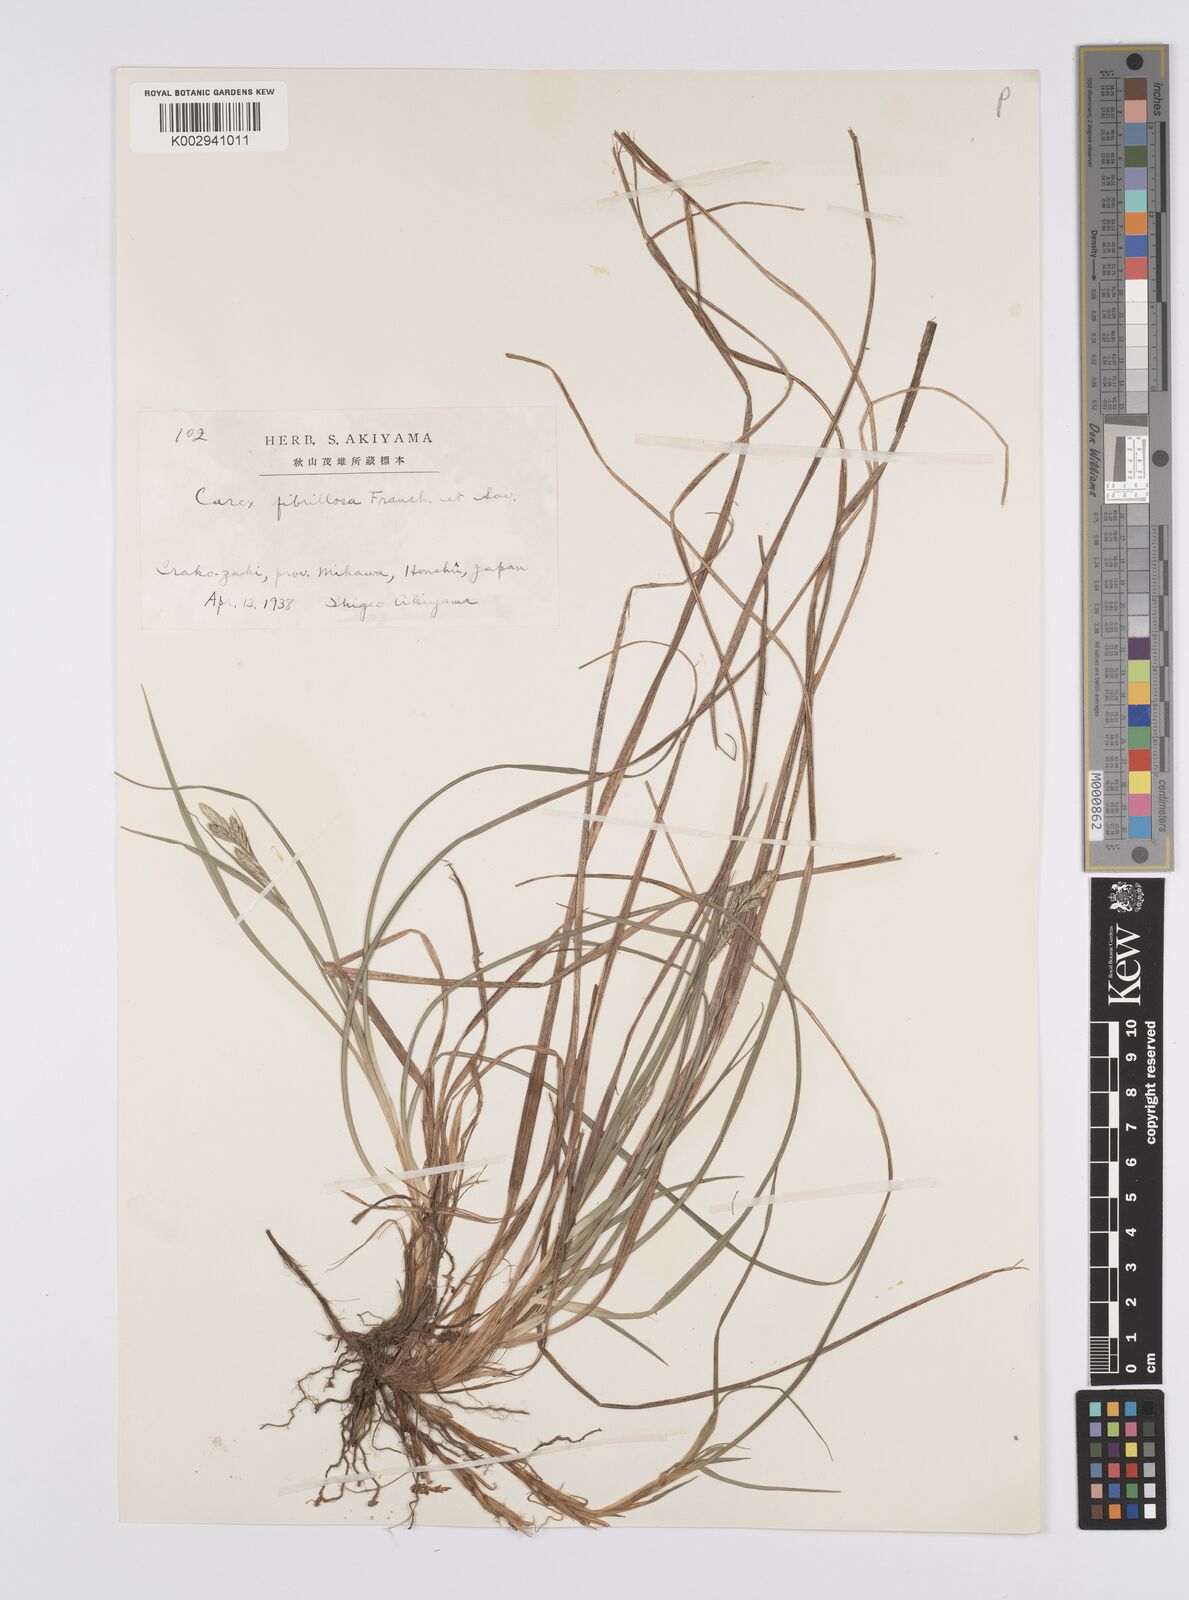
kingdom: Plantae
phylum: Tracheophyta
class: Liliopsida
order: Poales
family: Cyperaceae
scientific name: Cyperaceae
